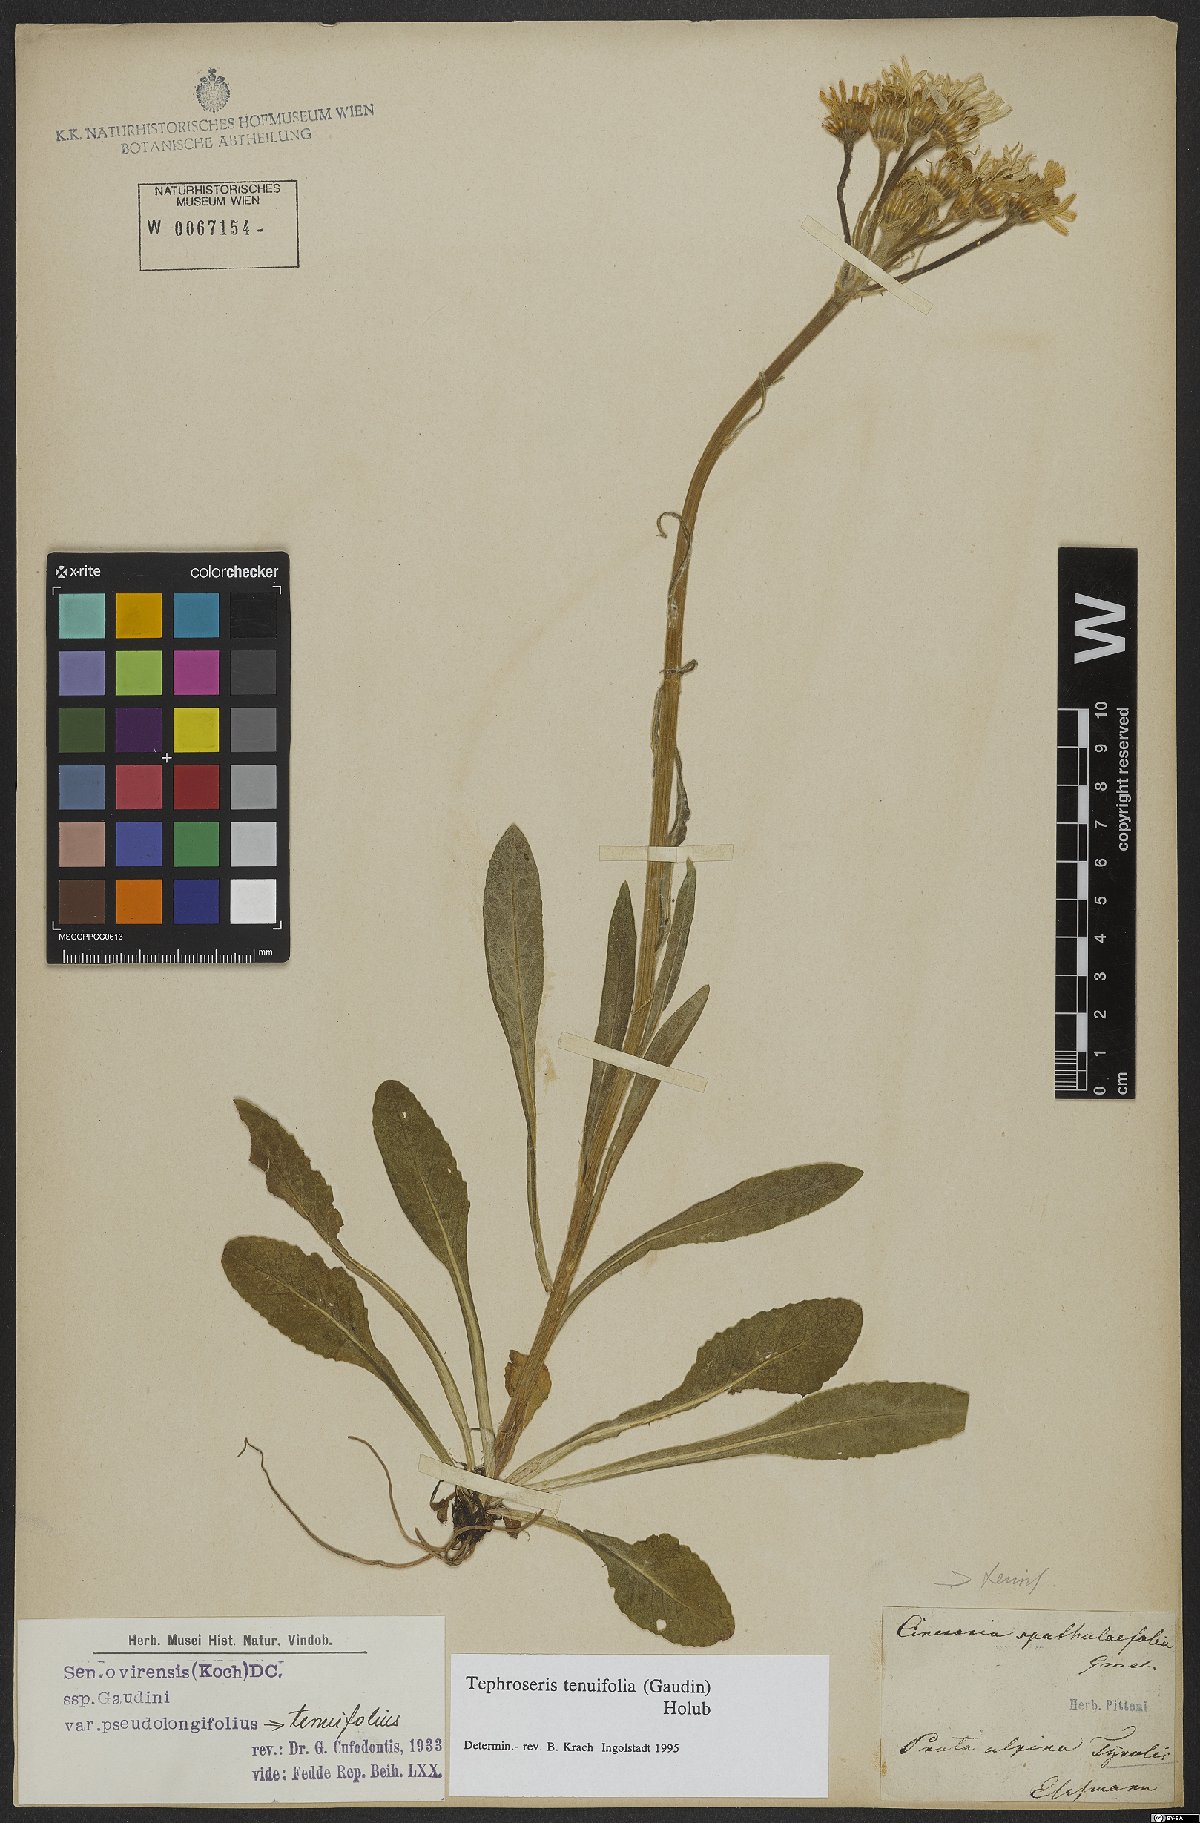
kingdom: Plantae
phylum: Tracheophyta
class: Magnoliopsida
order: Asterales
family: Asteraceae
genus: Tephroseris
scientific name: Tephroseris tenuifolia
